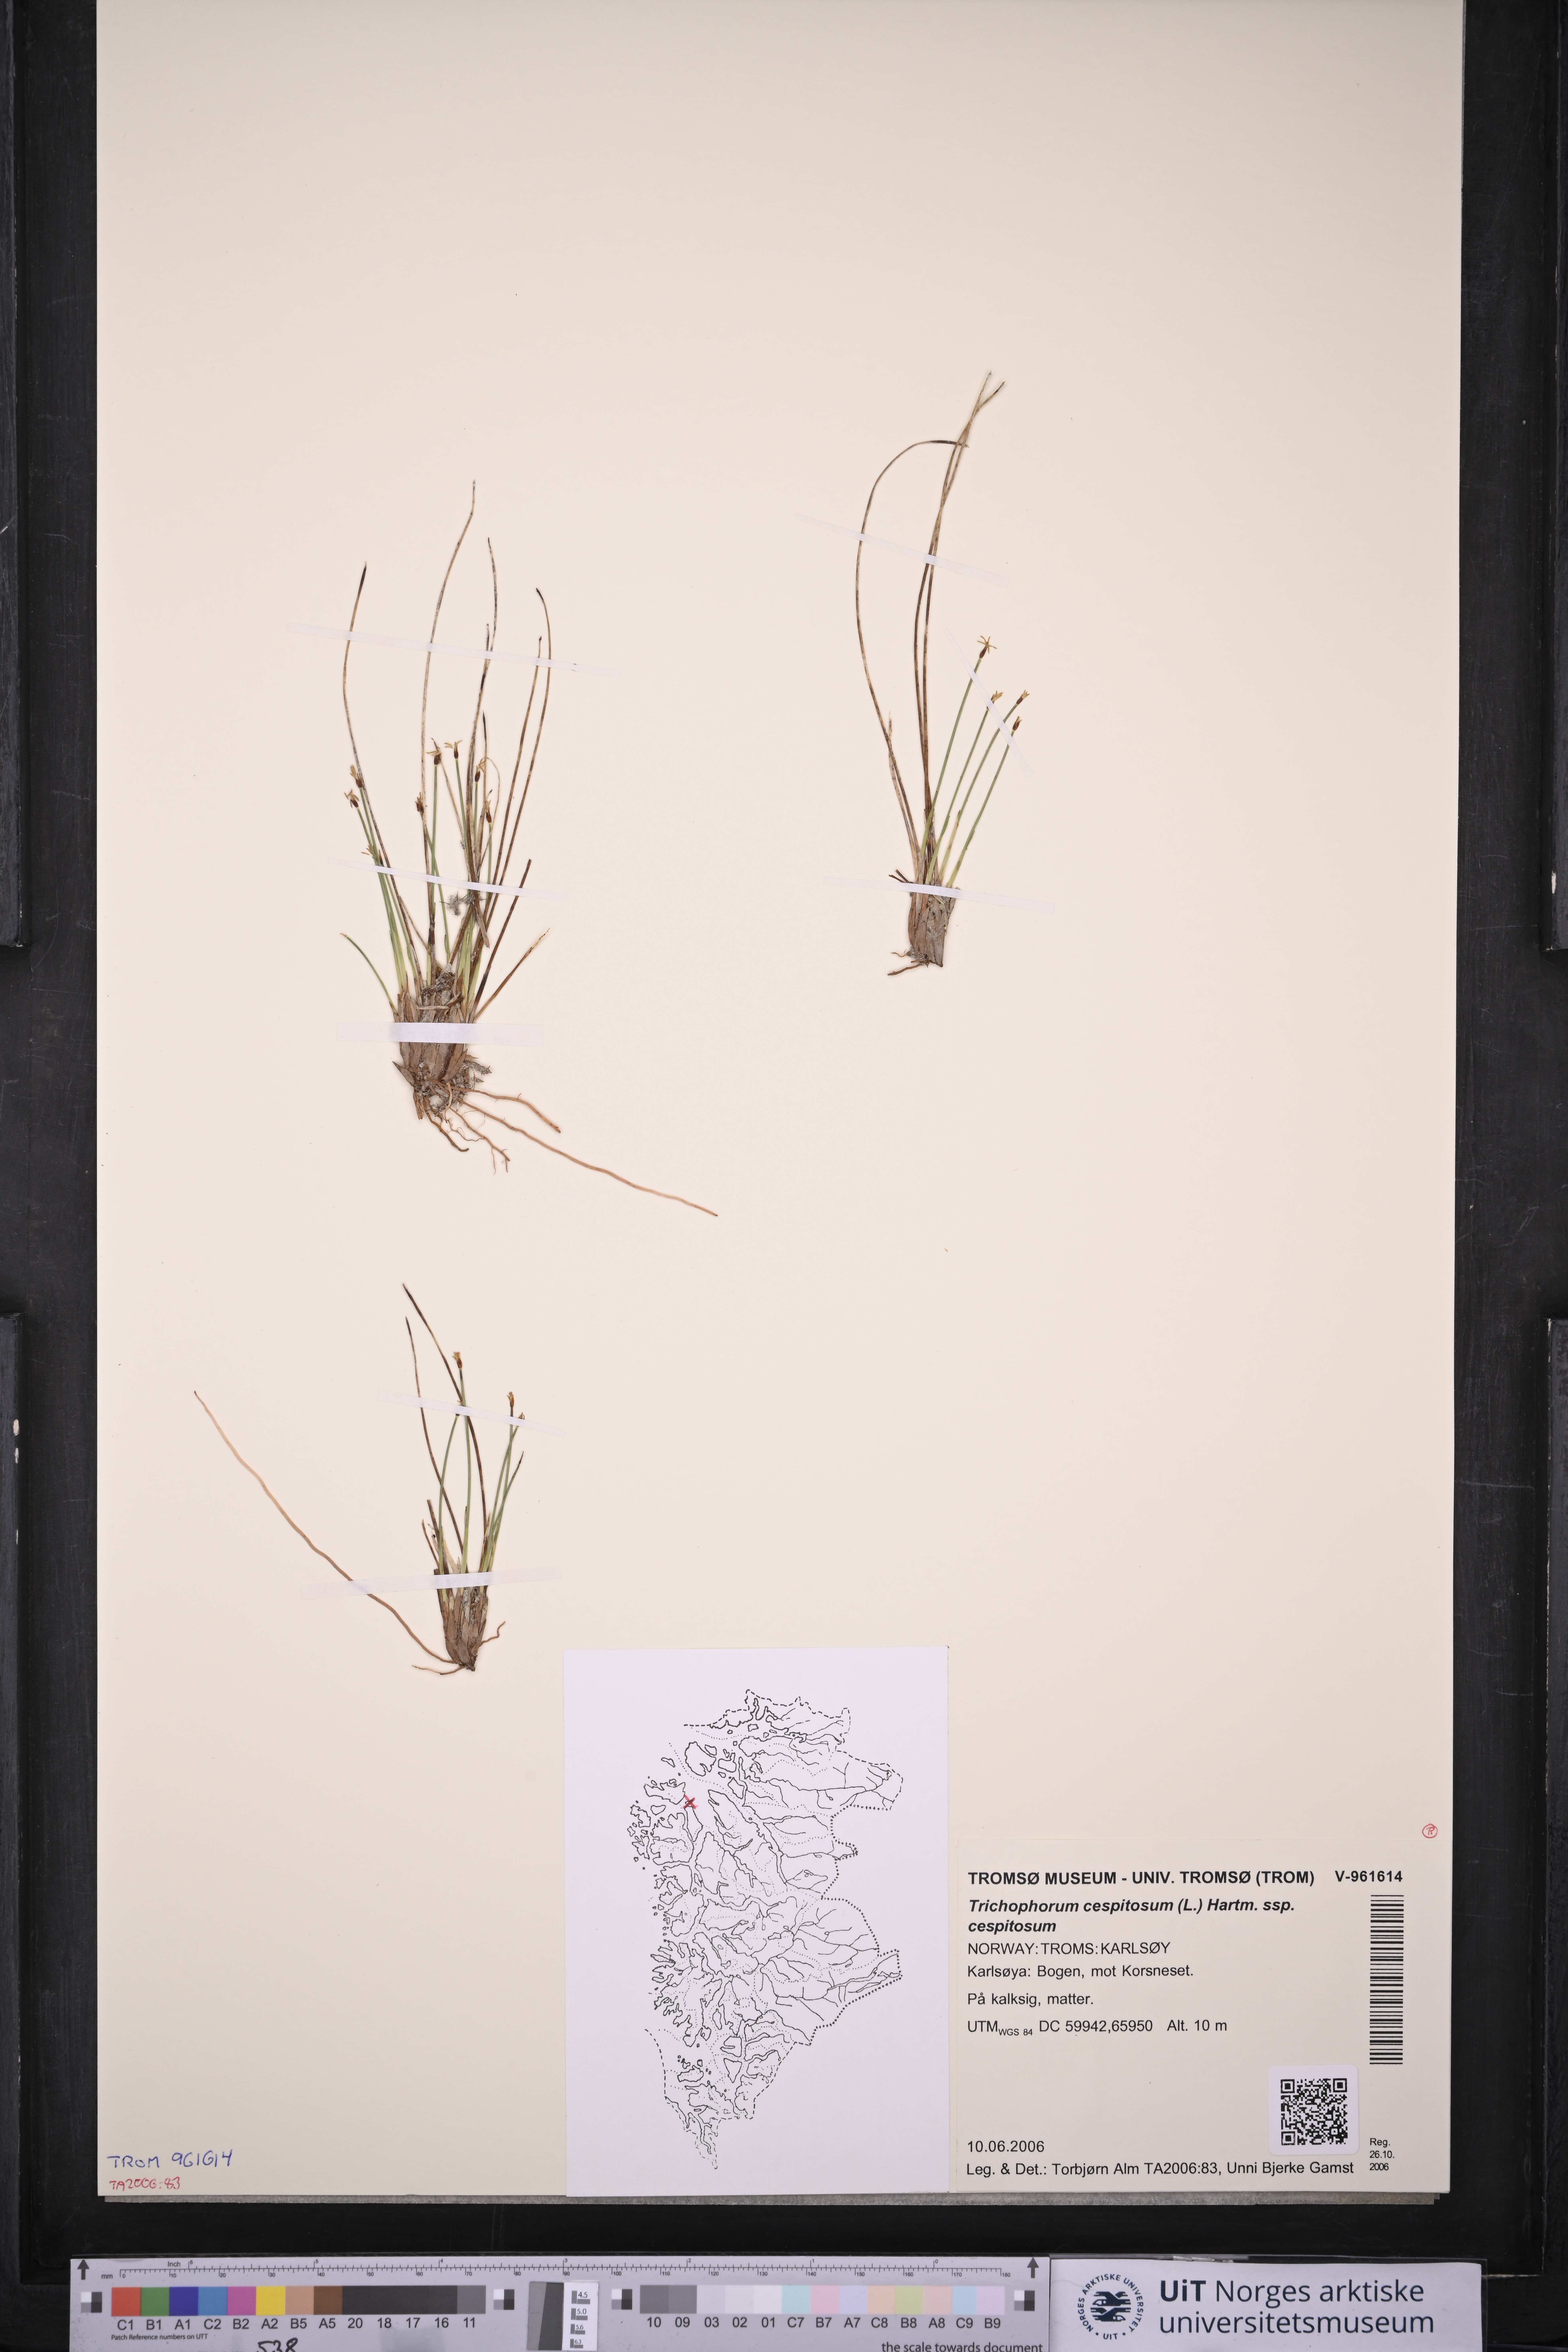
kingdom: Plantae
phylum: Tracheophyta
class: Liliopsida
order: Poales
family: Cyperaceae
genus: Trichophorum
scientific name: Trichophorum cespitosum
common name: Cespitose bulrush
